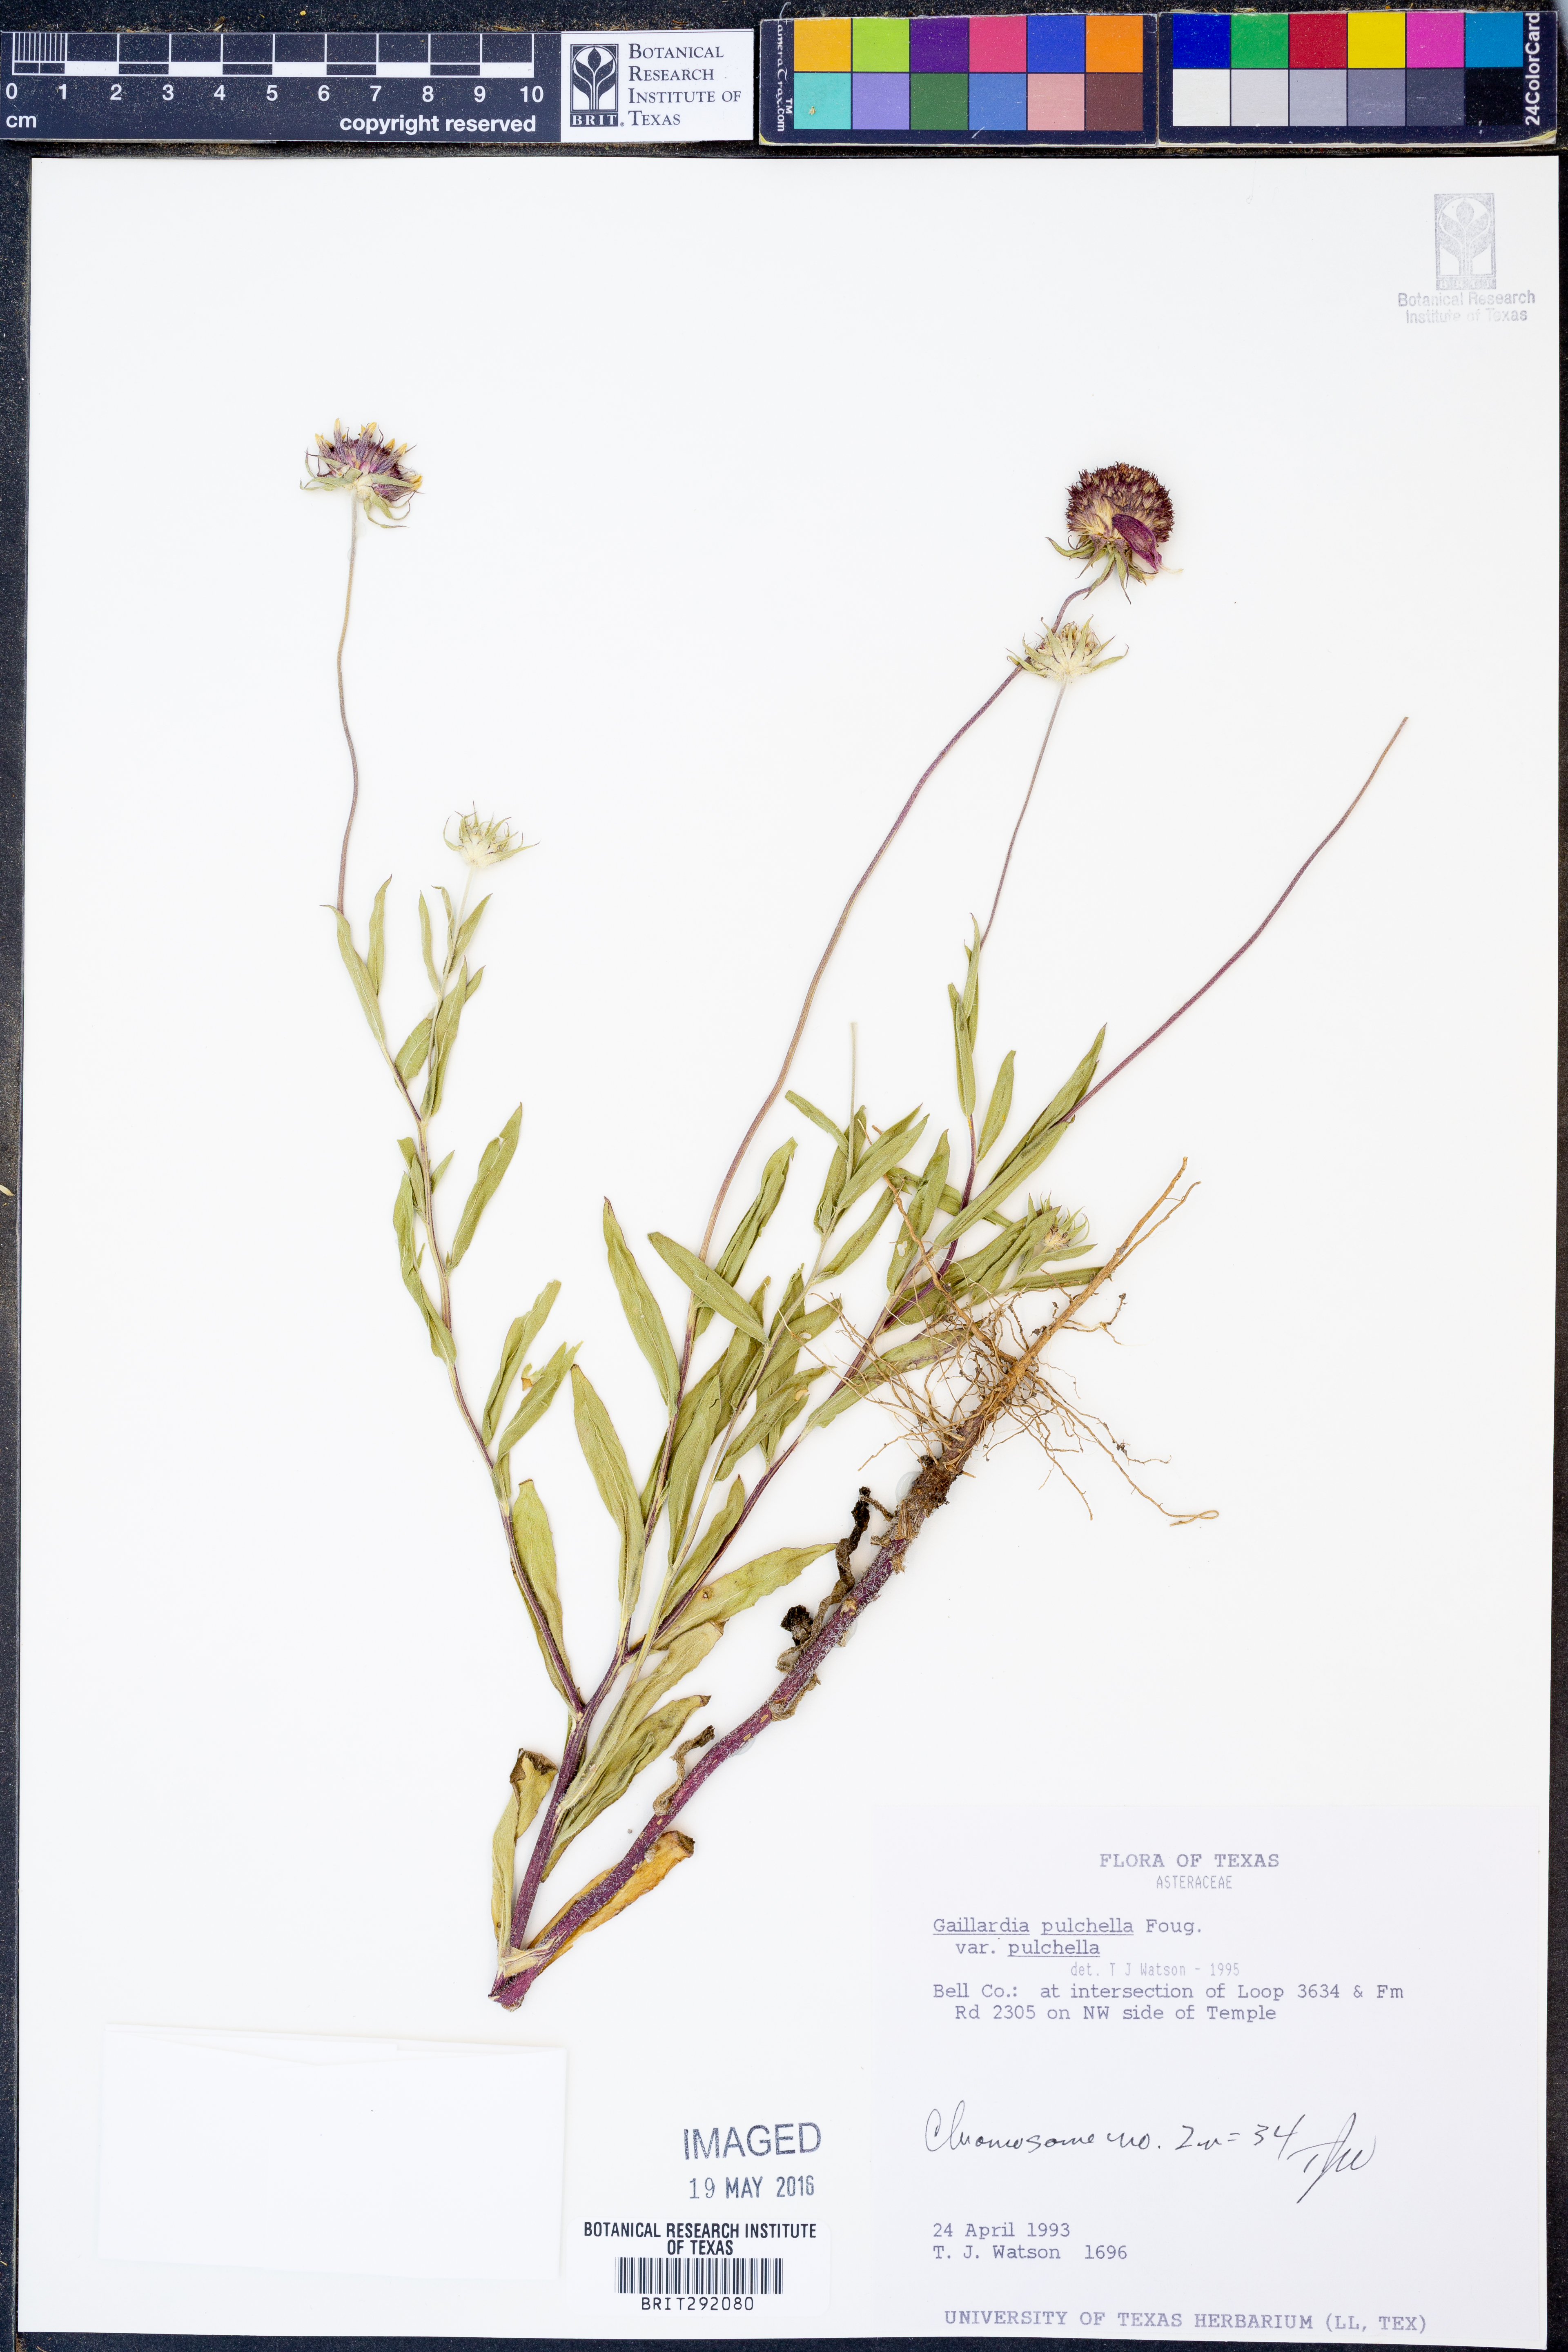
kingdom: Plantae
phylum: Tracheophyta
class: Magnoliopsida
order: Asterales
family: Asteraceae
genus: Gaillardia
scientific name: Gaillardia pulchella
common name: Firewheel
